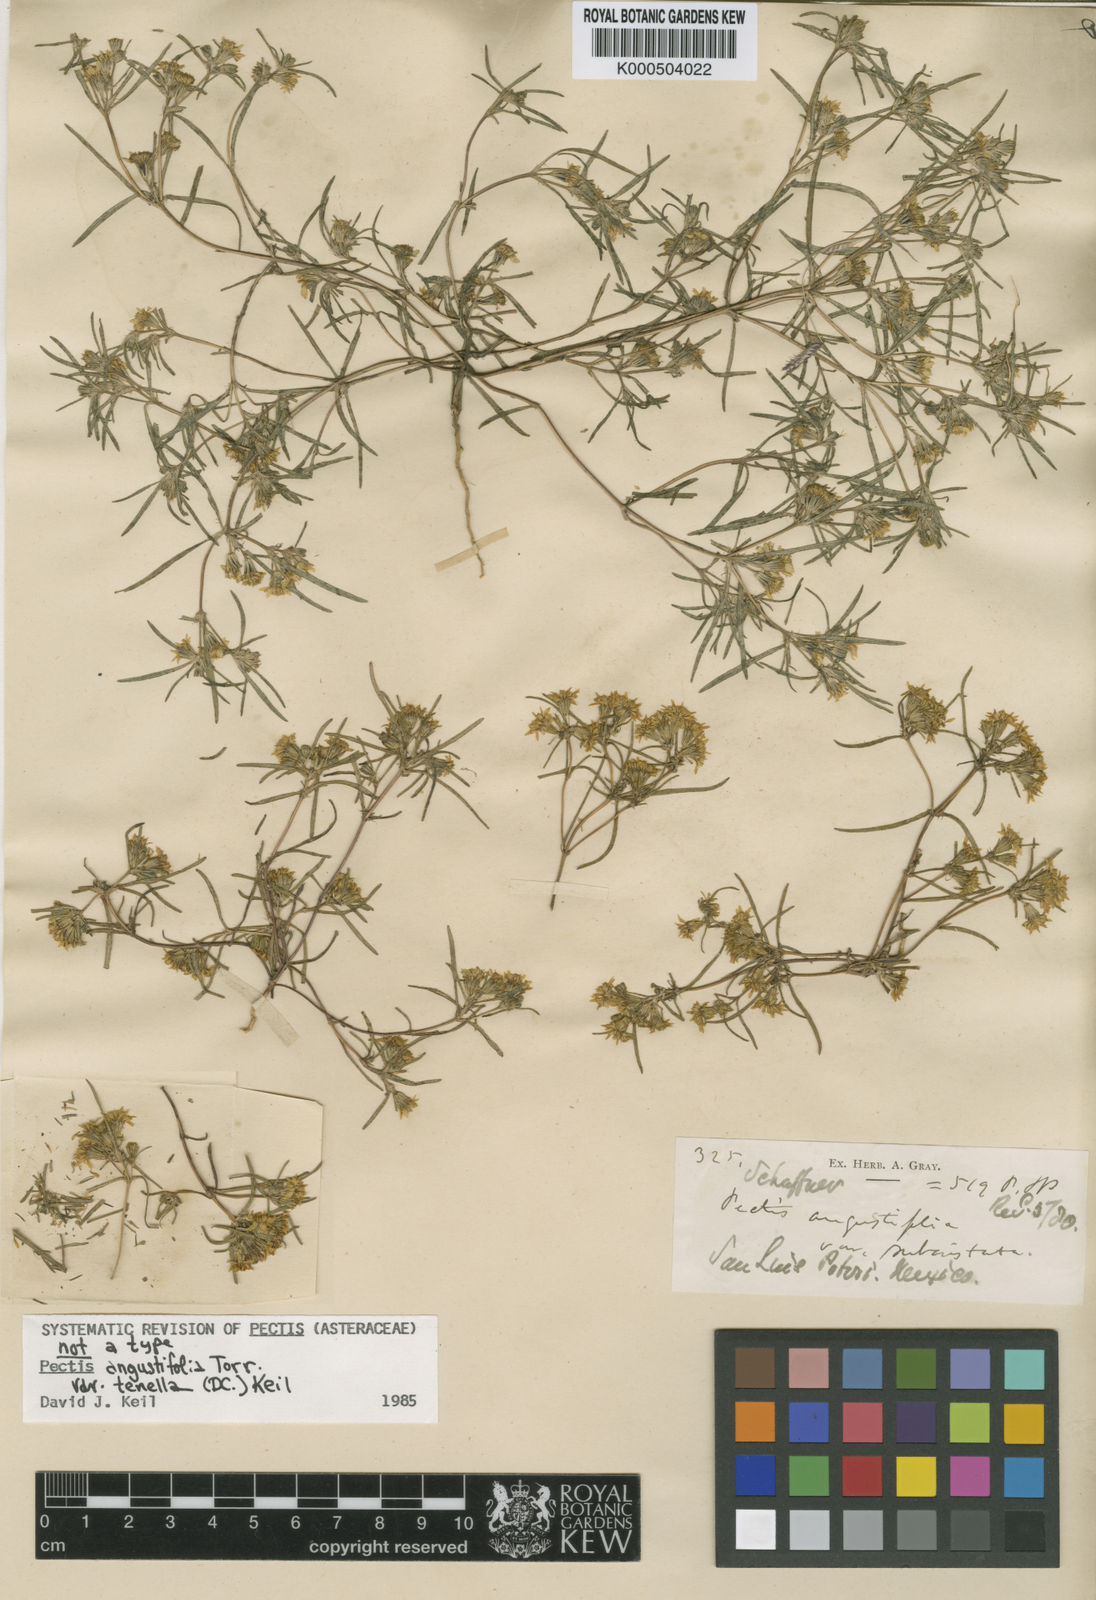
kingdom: Plantae
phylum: Tracheophyta
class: Magnoliopsida
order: Asterales
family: Asteraceae
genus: Pectis
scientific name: Pectis angustifolia
